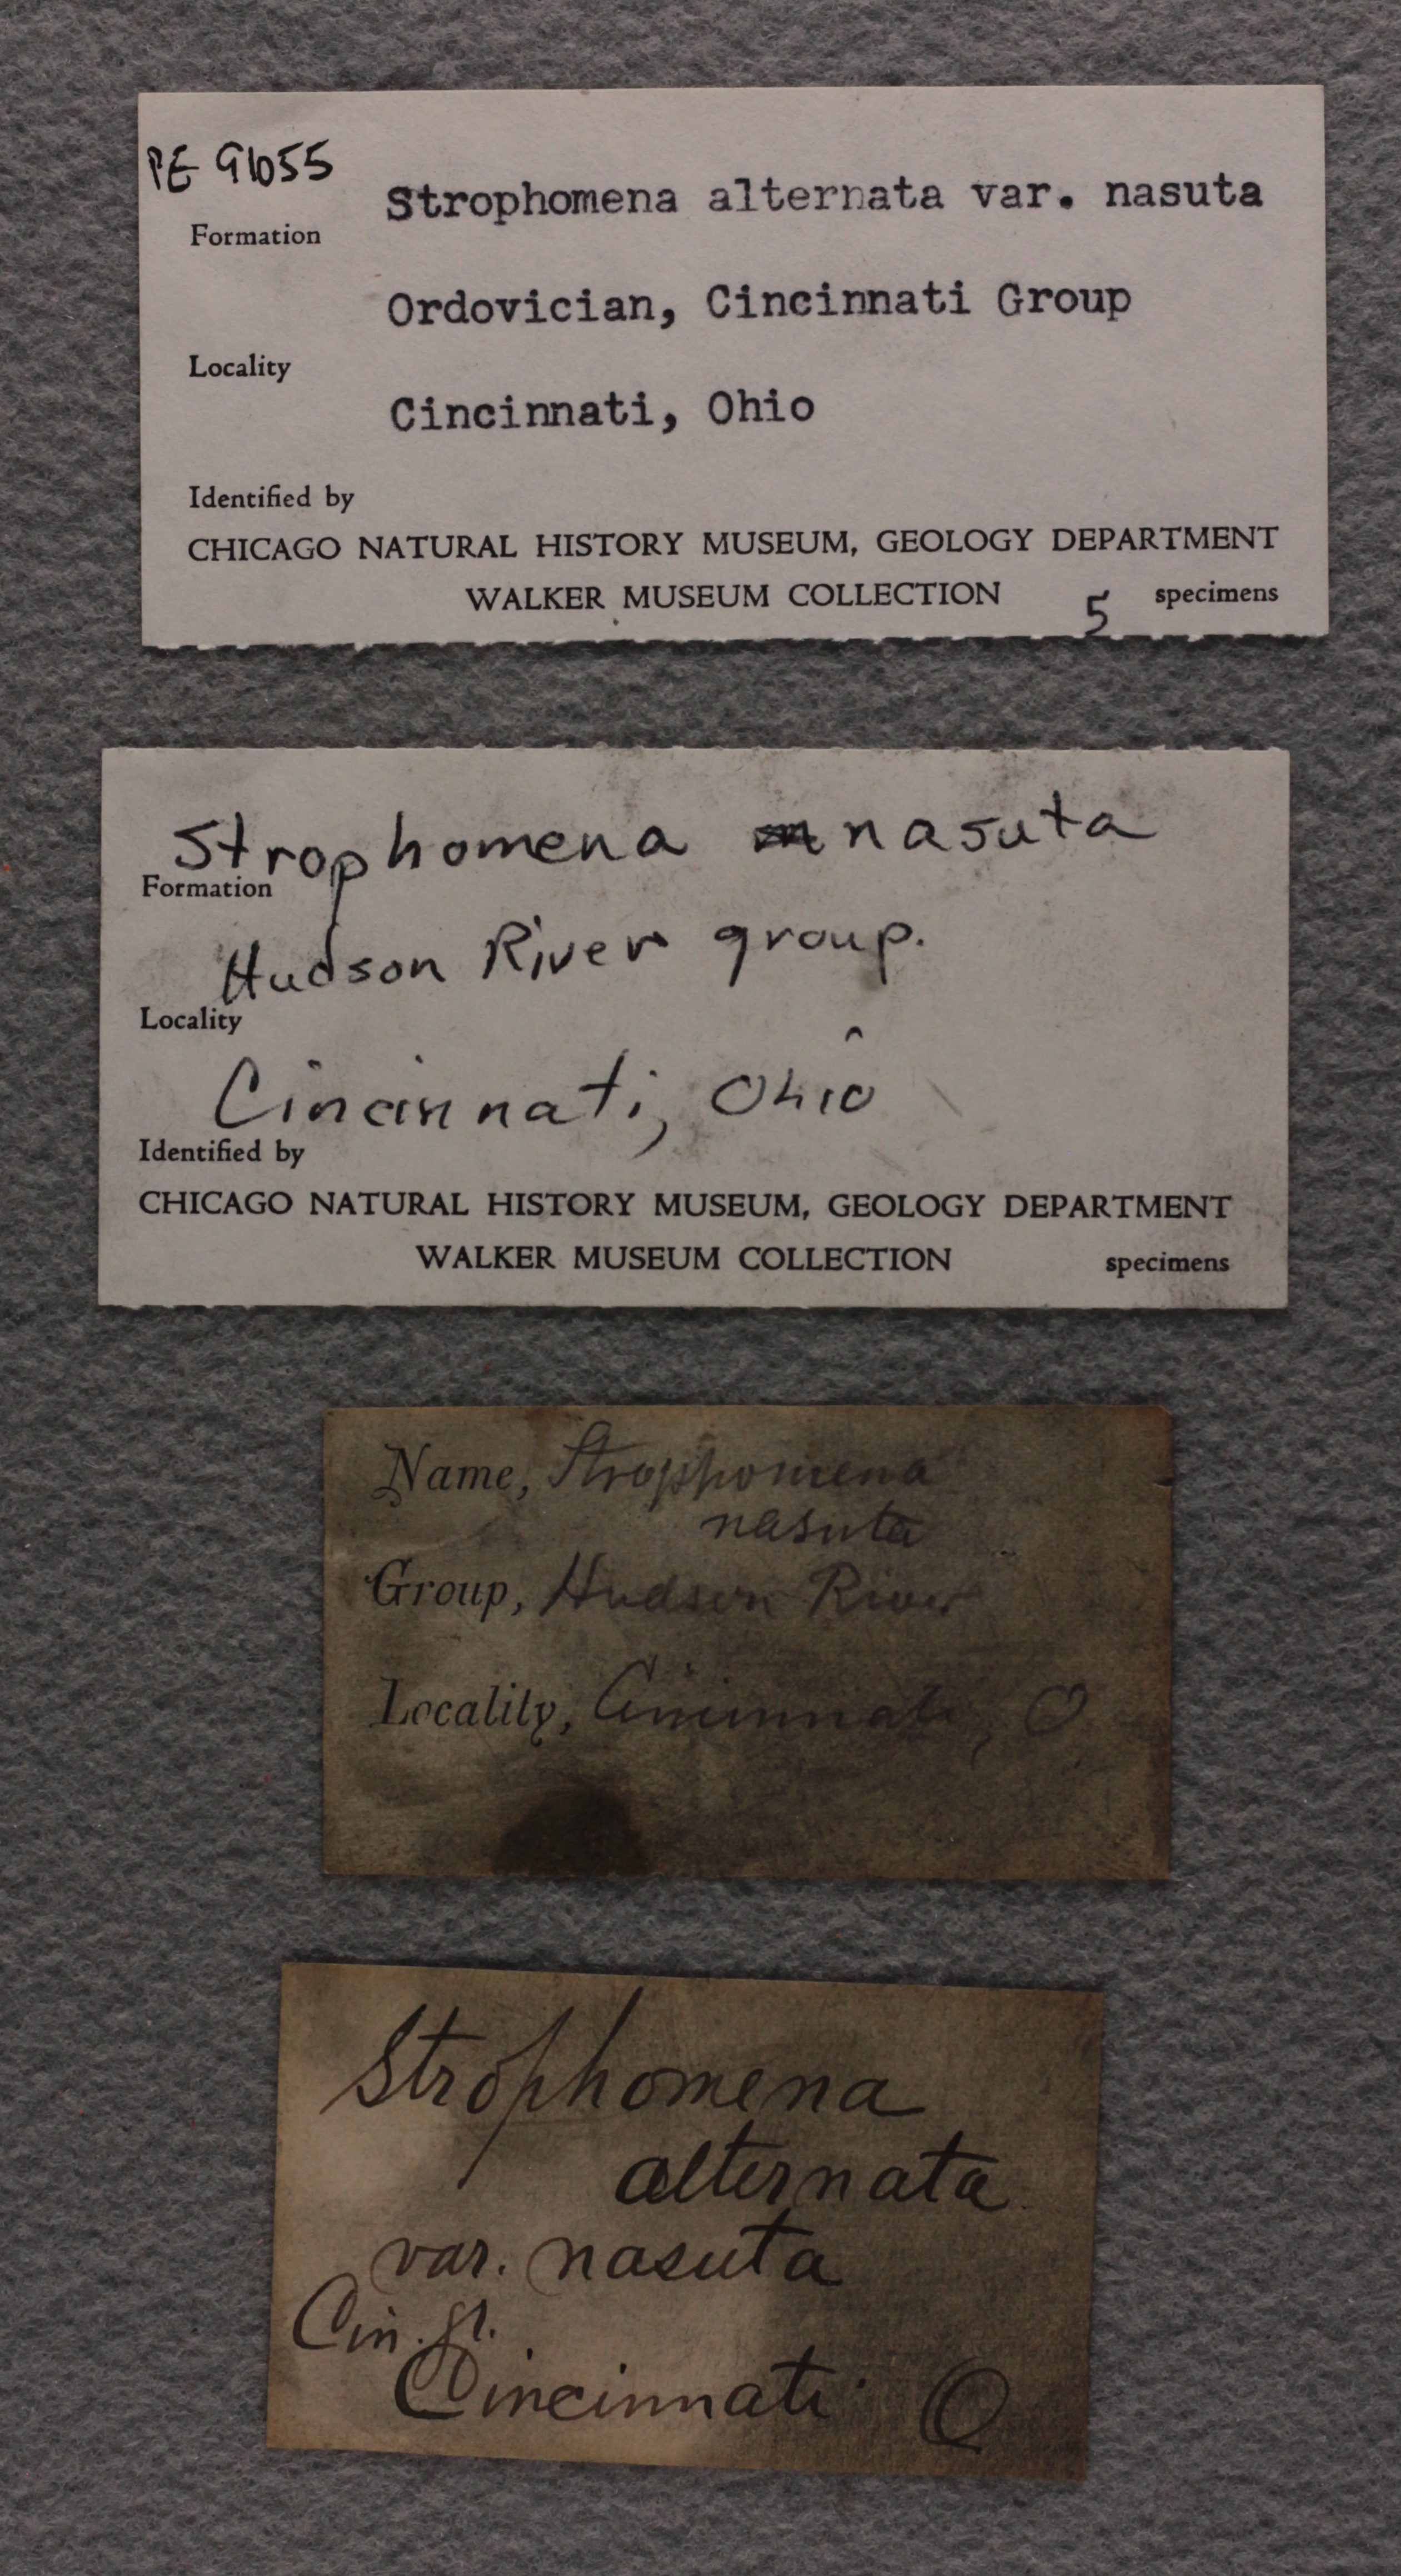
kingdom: Animalia
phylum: Brachiopoda
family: Strophomenidae
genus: Rafinesquina
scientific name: Rafinesquina Leptaena alternata
